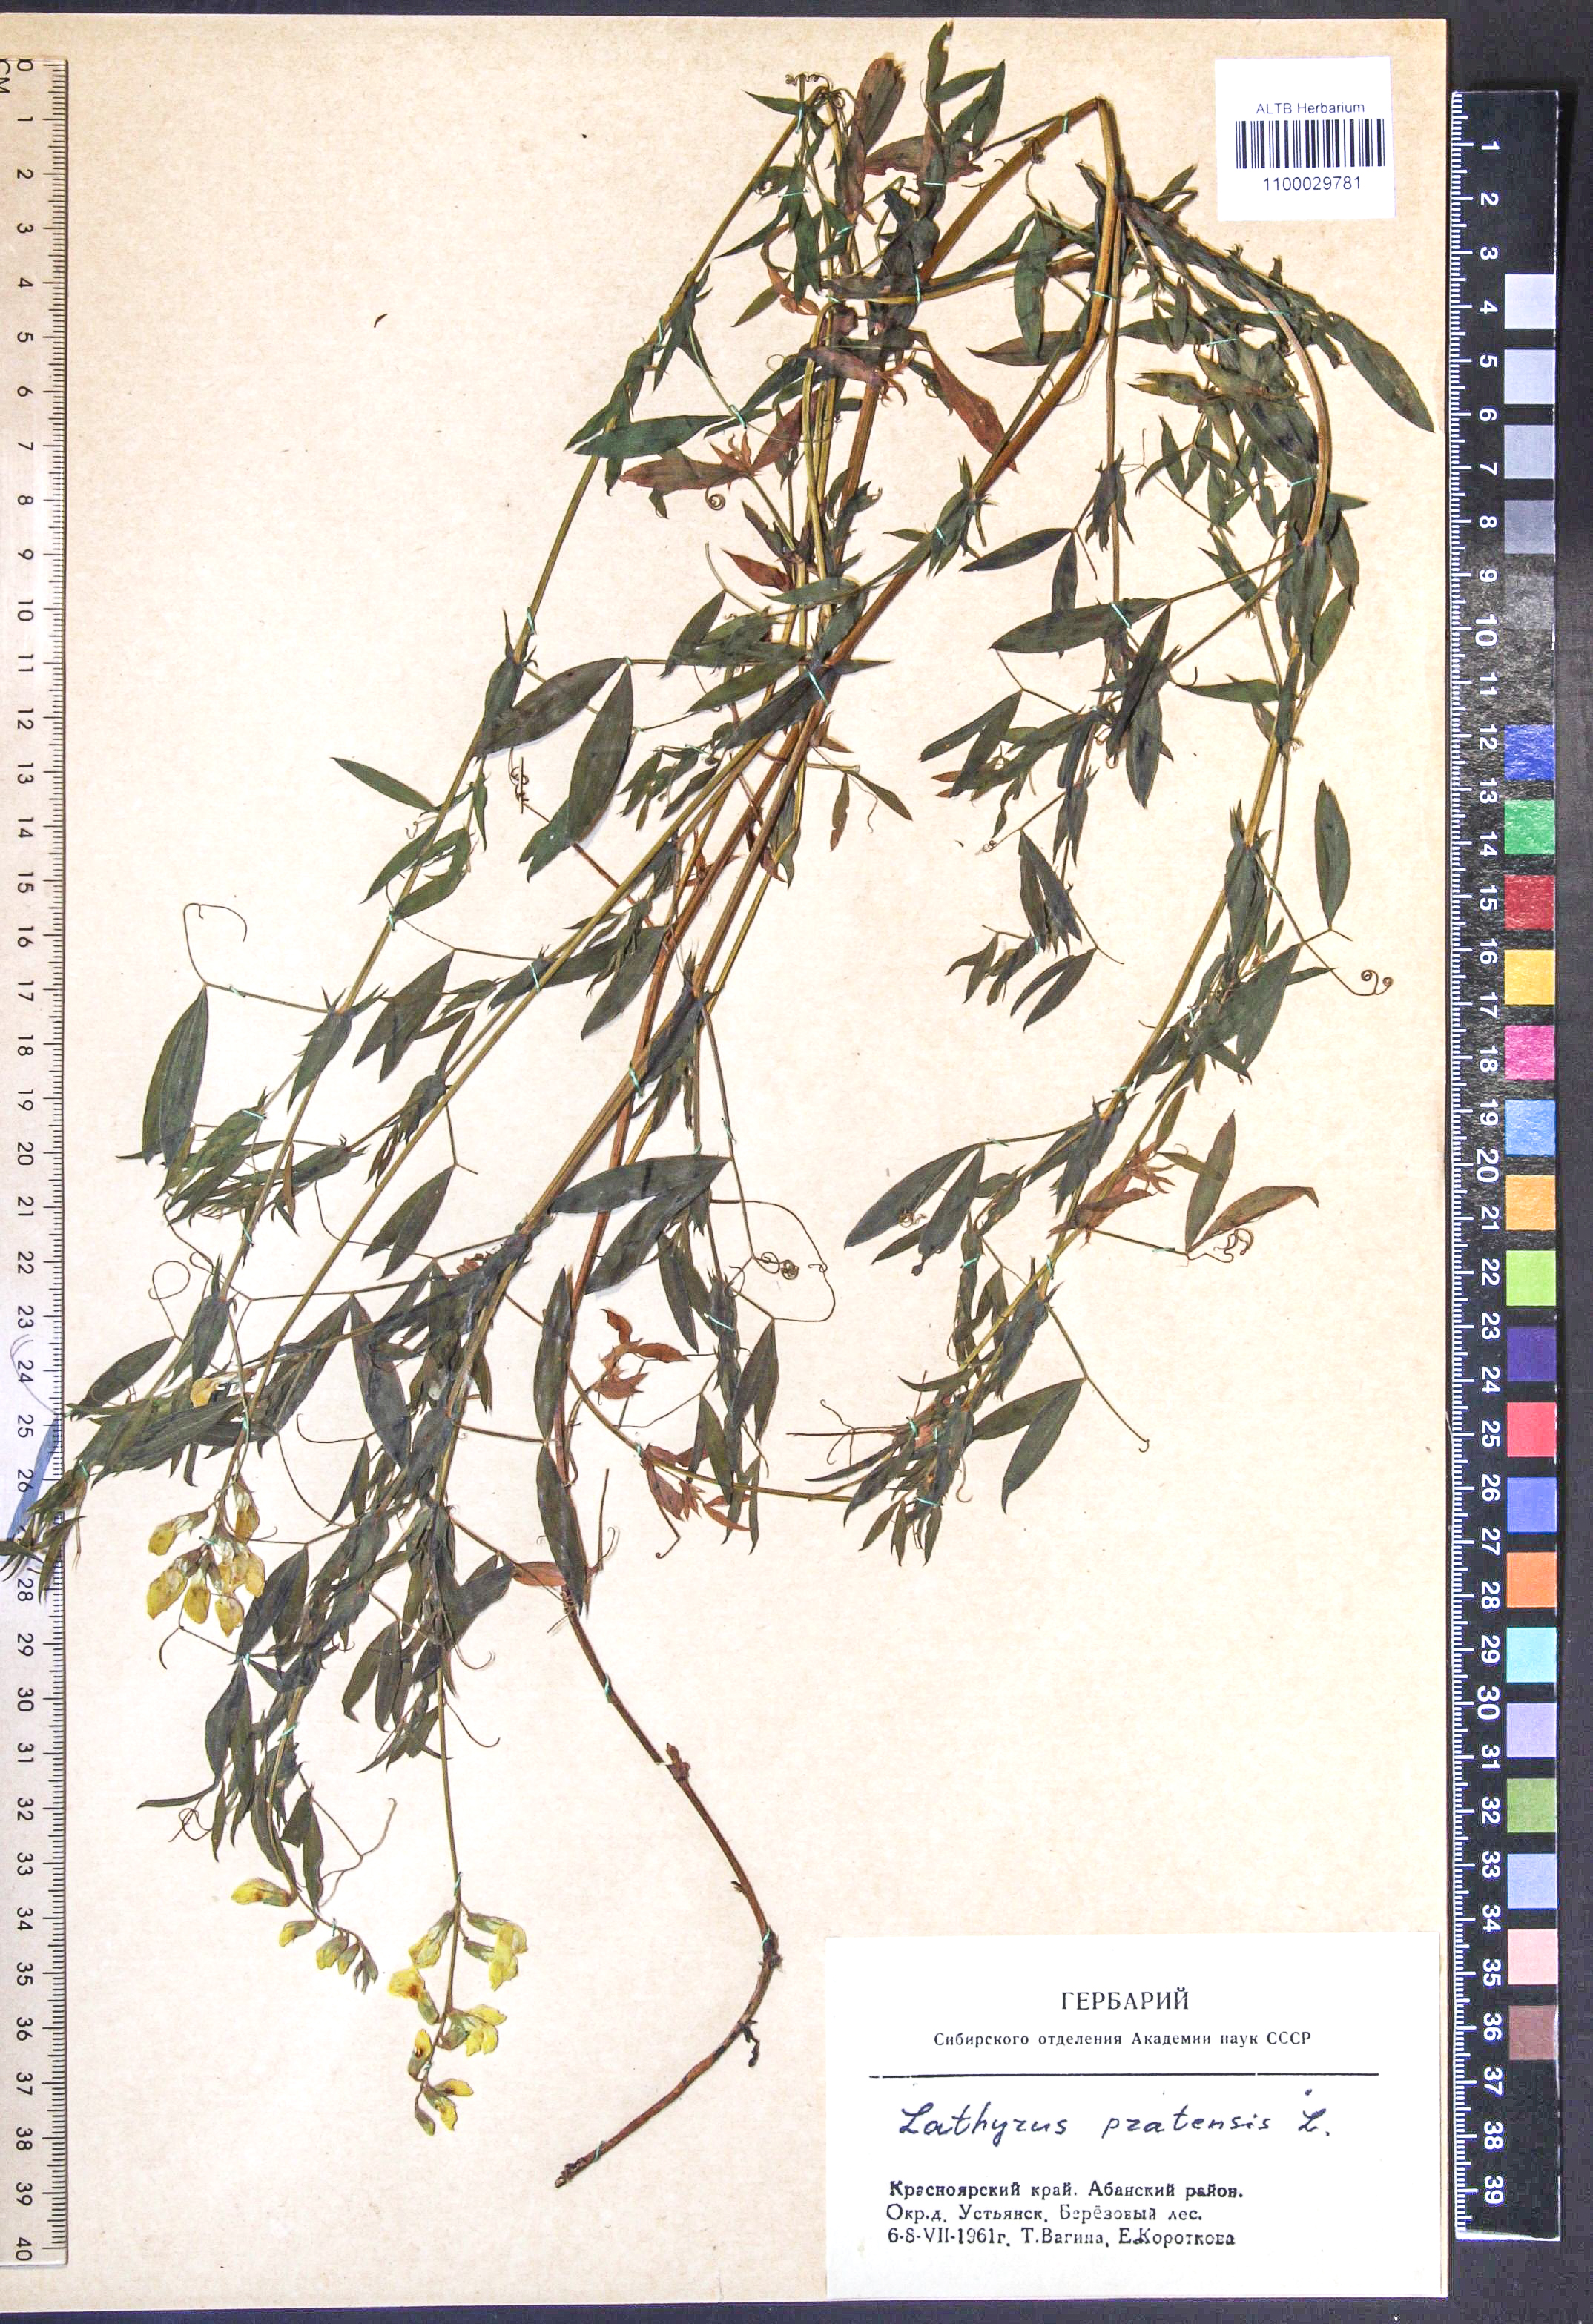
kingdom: Plantae
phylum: Tracheophyta
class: Magnoliopsida
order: Fabales
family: Fabaceae
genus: Lathyrus
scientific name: Lathyrus pratensis
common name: Meadow vetchling
